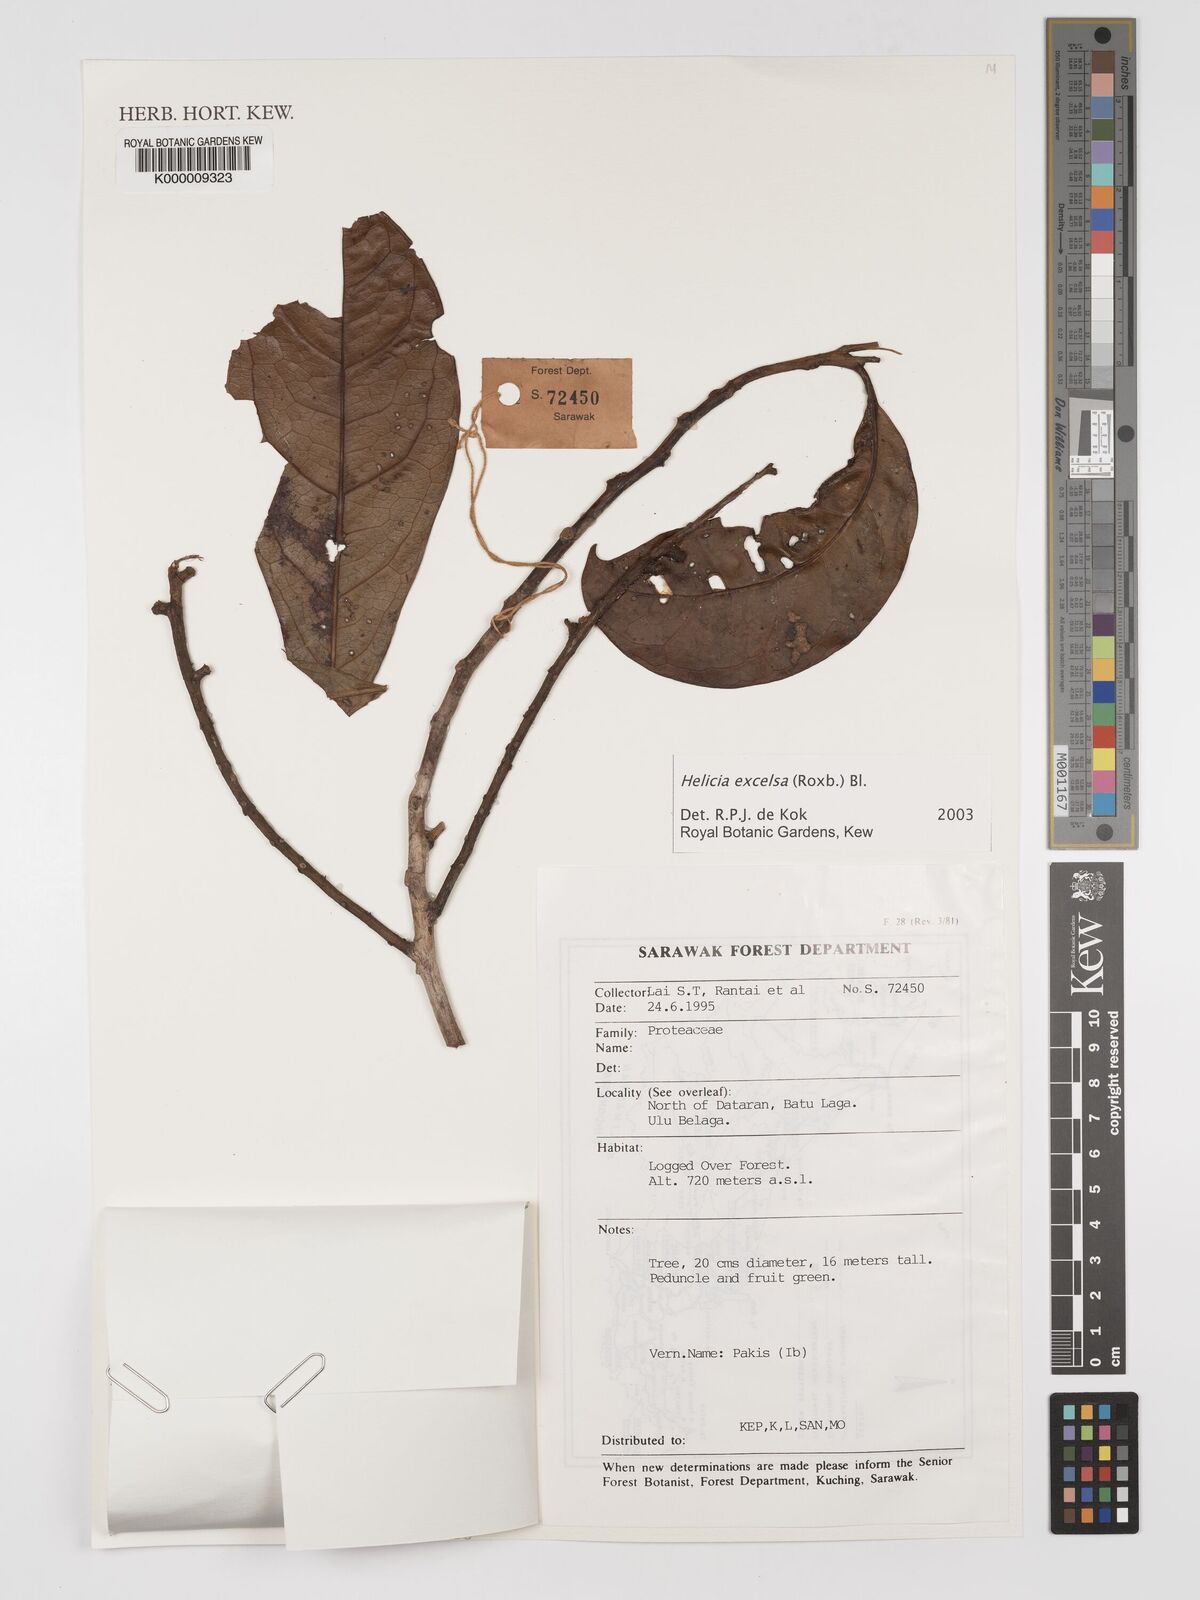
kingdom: Plantae
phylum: Tracheophyta
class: Magnoliopsida
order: Proteales
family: Proteaceae
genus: Helicia
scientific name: Helicia excelsa
